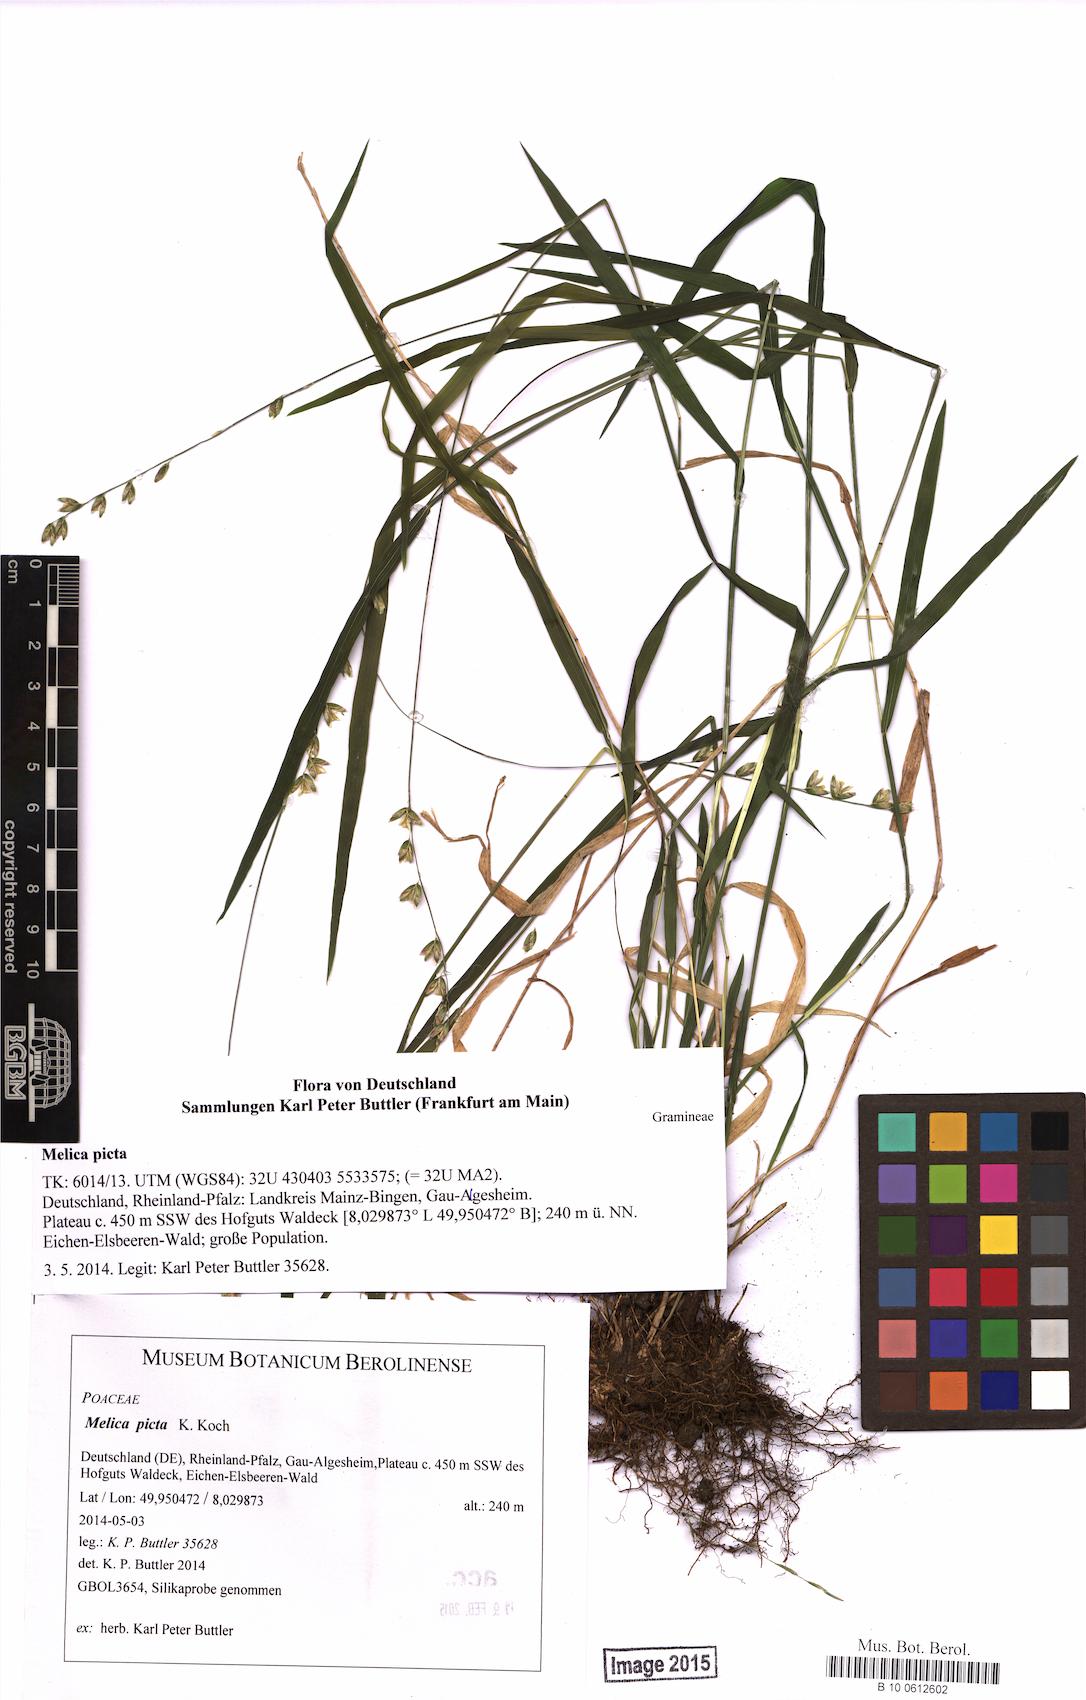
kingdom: Plantae
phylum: Tracheophyta
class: Liliopsida
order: Poales
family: Poaceae
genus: Melica
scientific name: Melica picta
